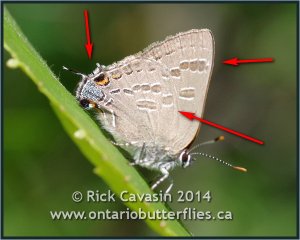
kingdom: Animalia
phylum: Arthropoda
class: Insecta
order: Lepidoptera
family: Lycaenidae
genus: Strymon
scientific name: Strymon caryaevorus
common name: Hickory Hairstreak
